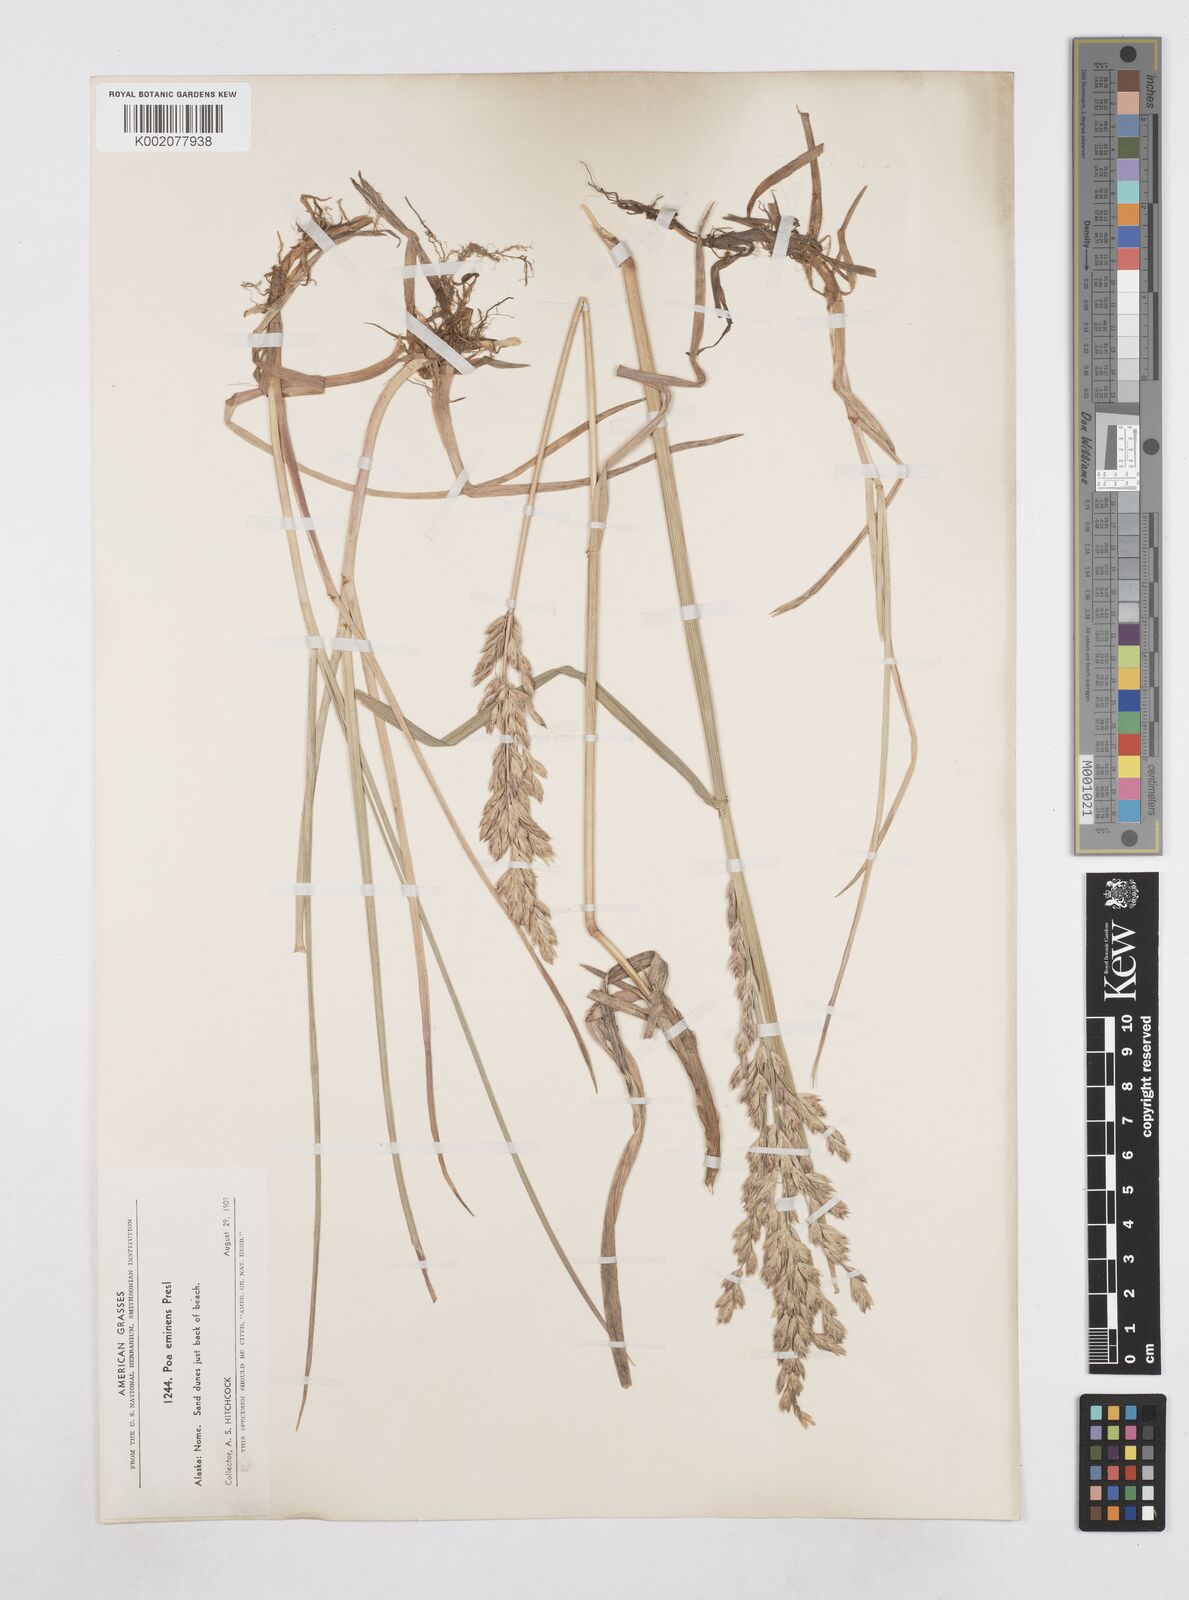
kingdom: Plantae
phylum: Tracheophyta
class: Liliopsida
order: Poales
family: Poaceae
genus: Arctopoa
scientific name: Arctopoa eminens
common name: Eminent bluegrass
